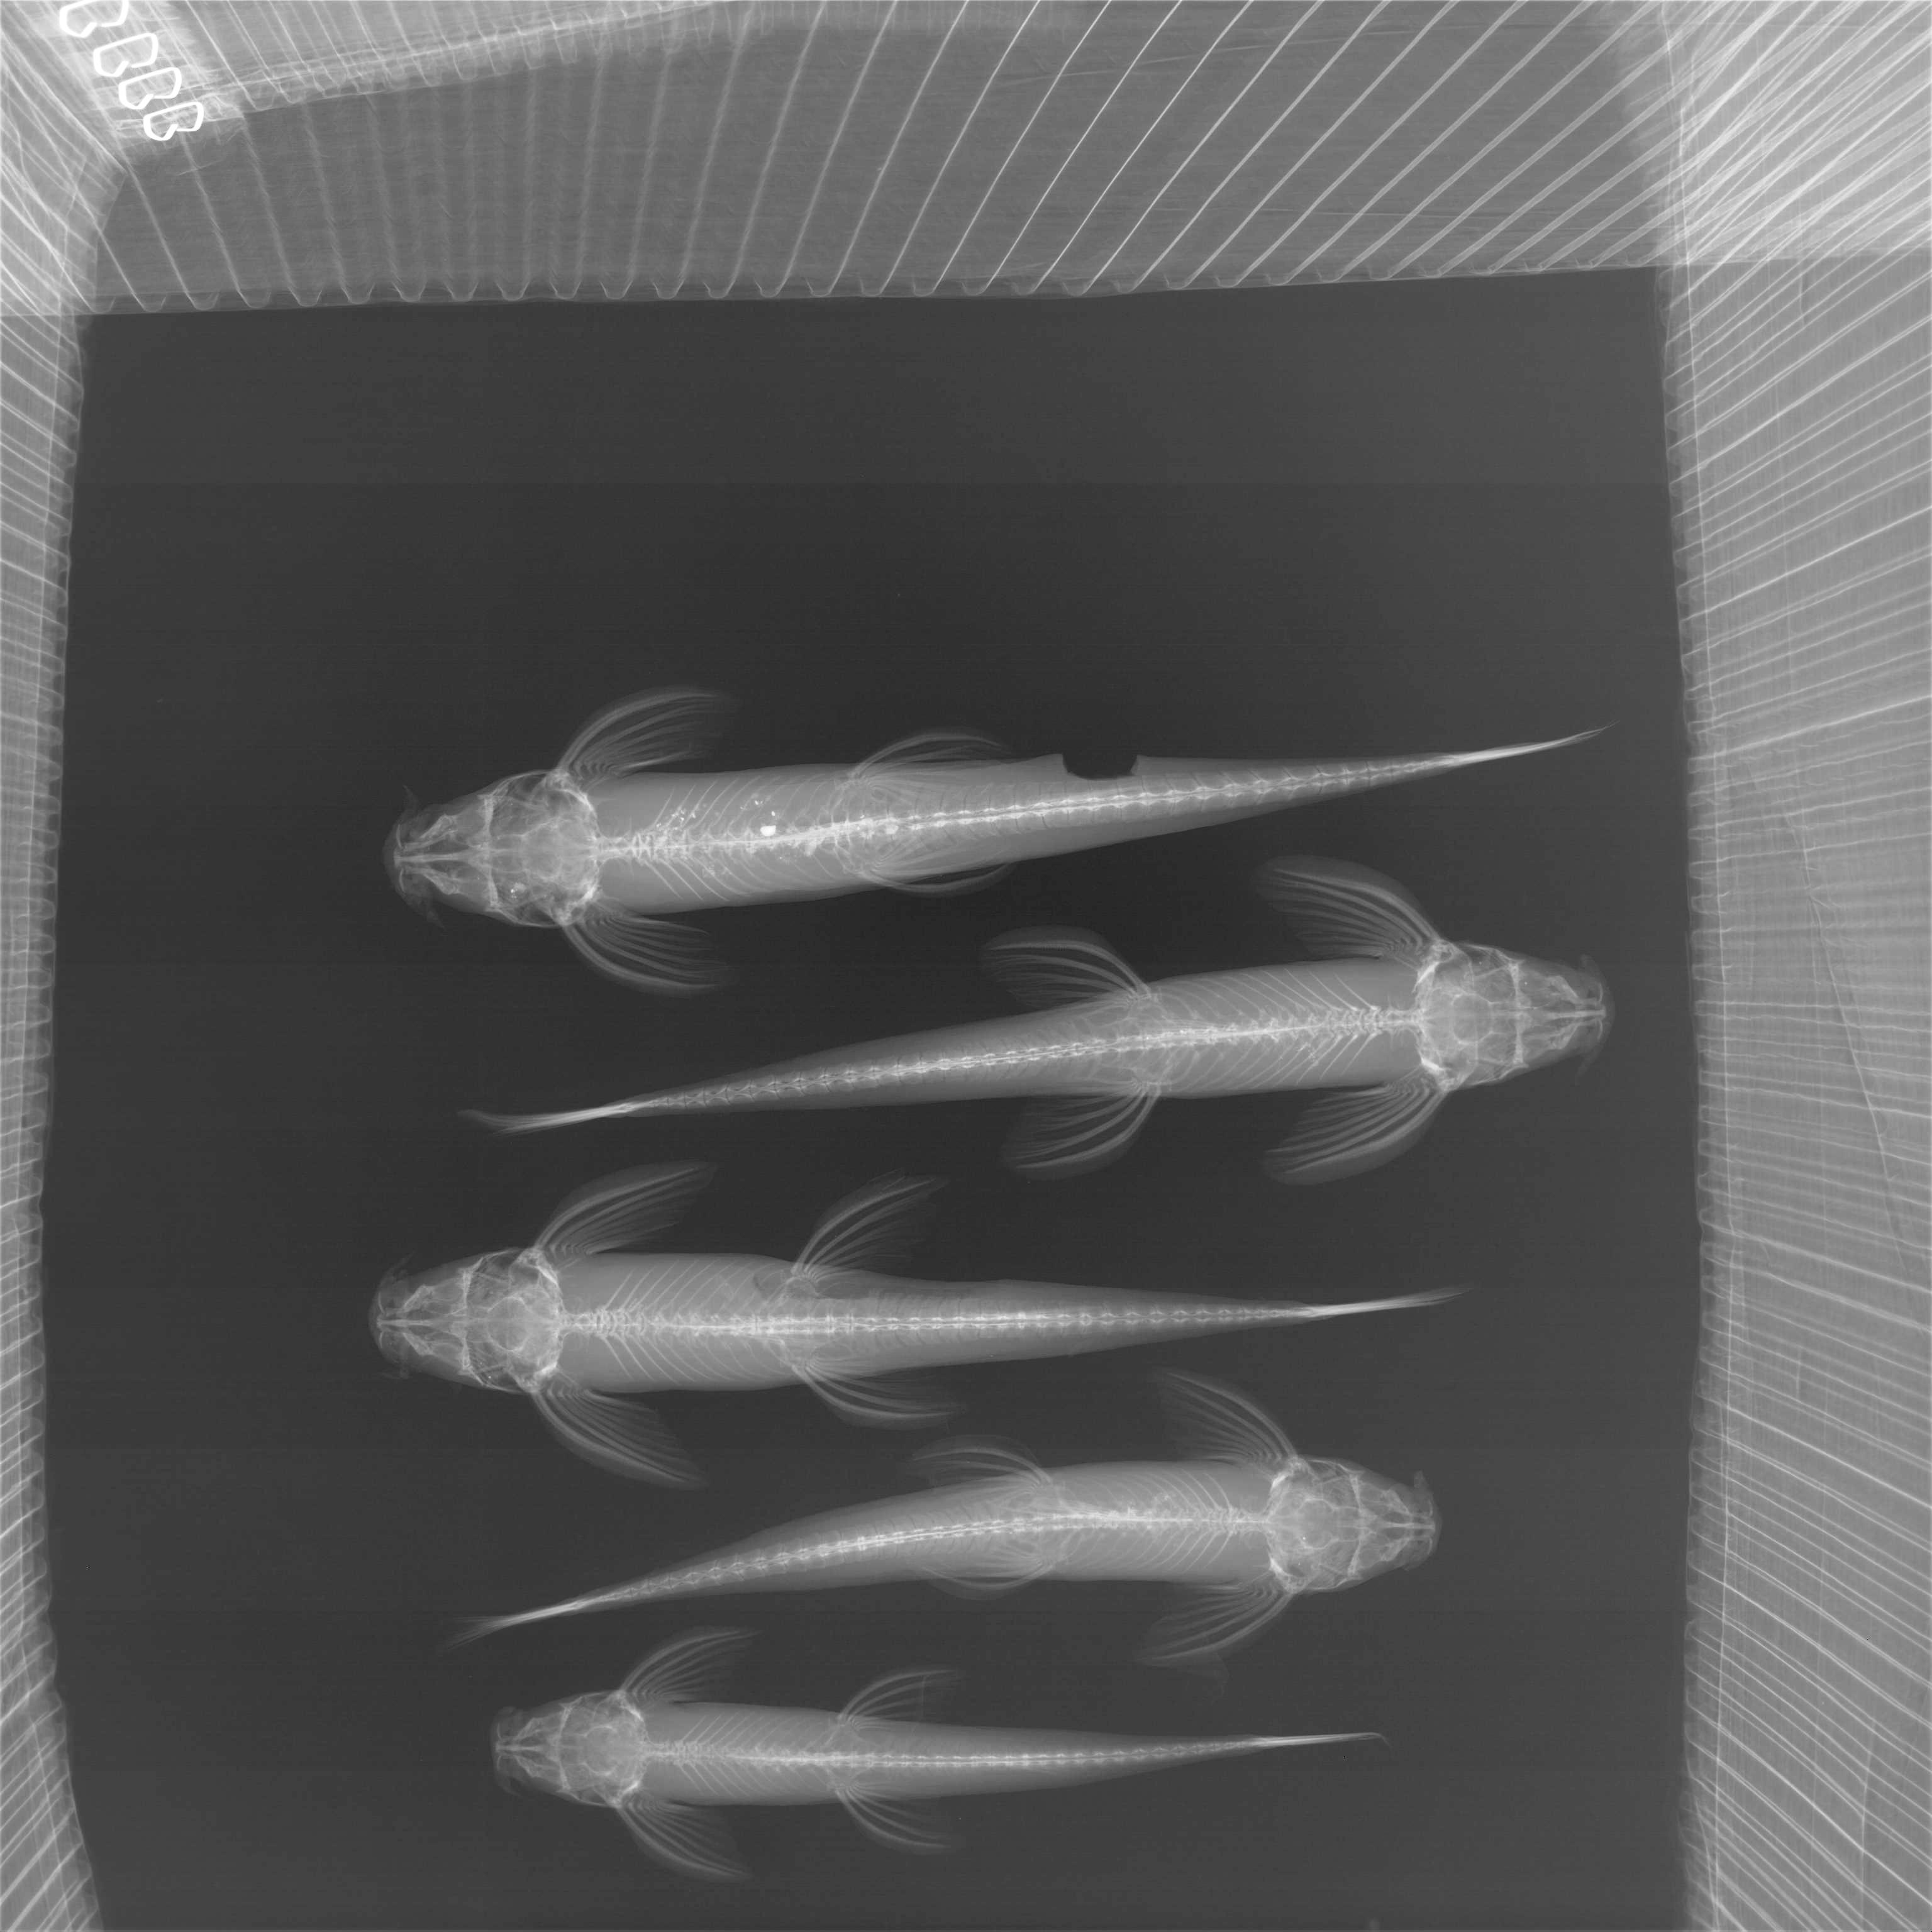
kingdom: Animalia
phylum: Chordata
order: Siluriformes
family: Amphiliidae
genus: Doumea
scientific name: Doumea
